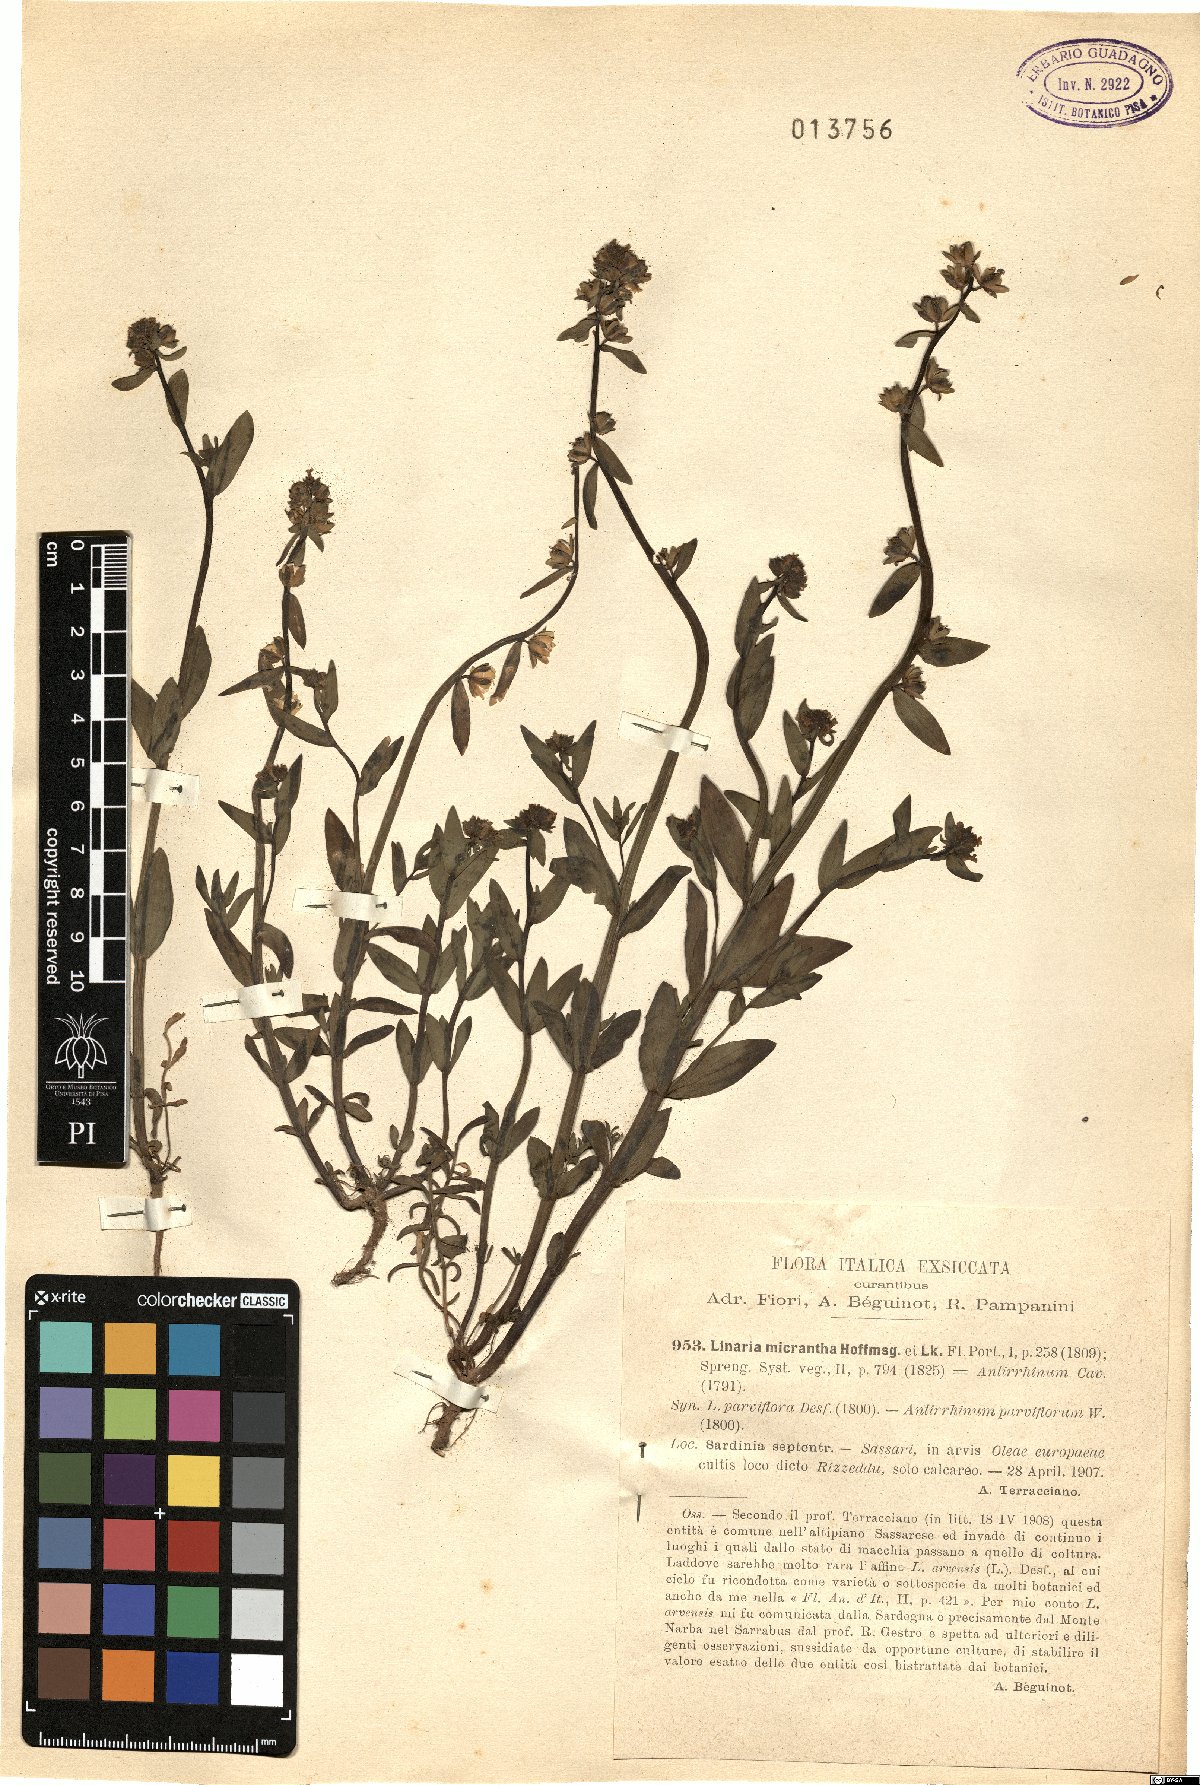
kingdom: Plantae
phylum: Tracheophyta
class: Magnoliopsida
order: Lamiales
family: Plantaginaceae
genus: Linaria
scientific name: Linaria micrantha
